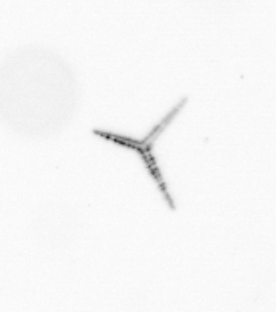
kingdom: Chromista
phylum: Ochrophyta
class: Bacillariophyceae
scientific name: Bacillariophyceae
